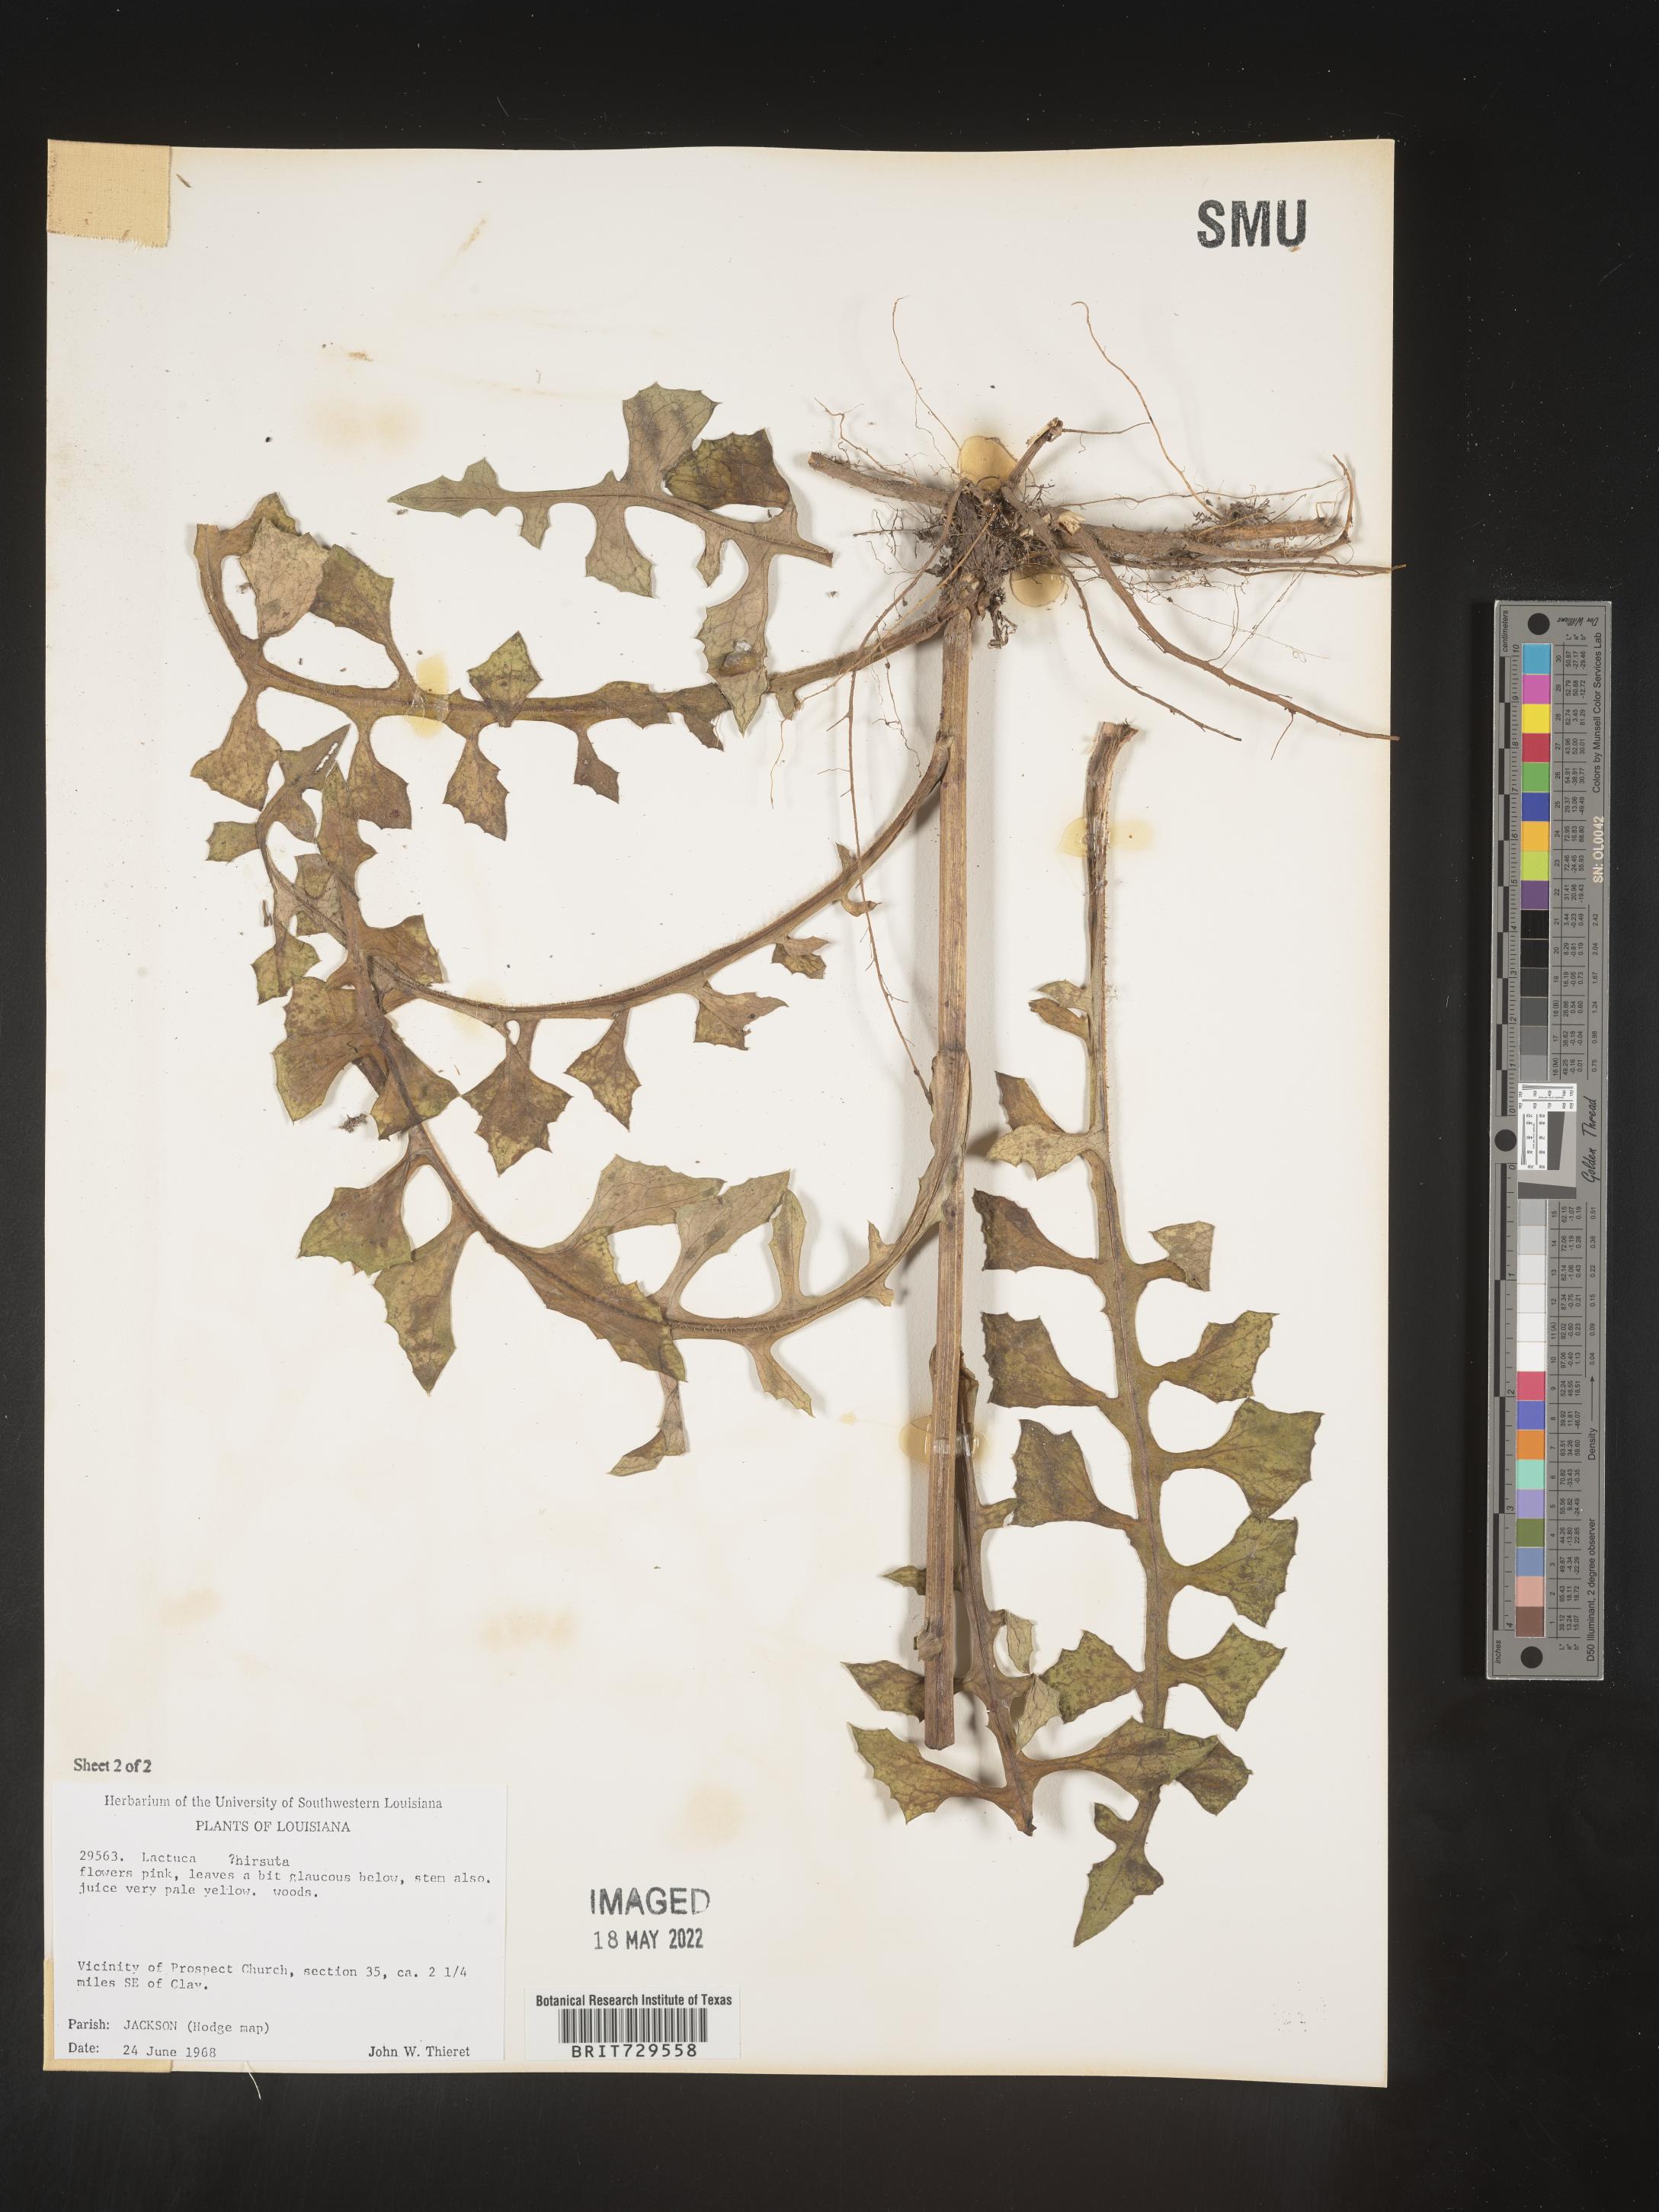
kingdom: Plantae
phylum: Tracheophyta
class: Magnoliopsida
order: Asterales
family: Asteraceae
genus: Lactuca
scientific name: Lactuca hirsuta
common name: Hairy lettuce
